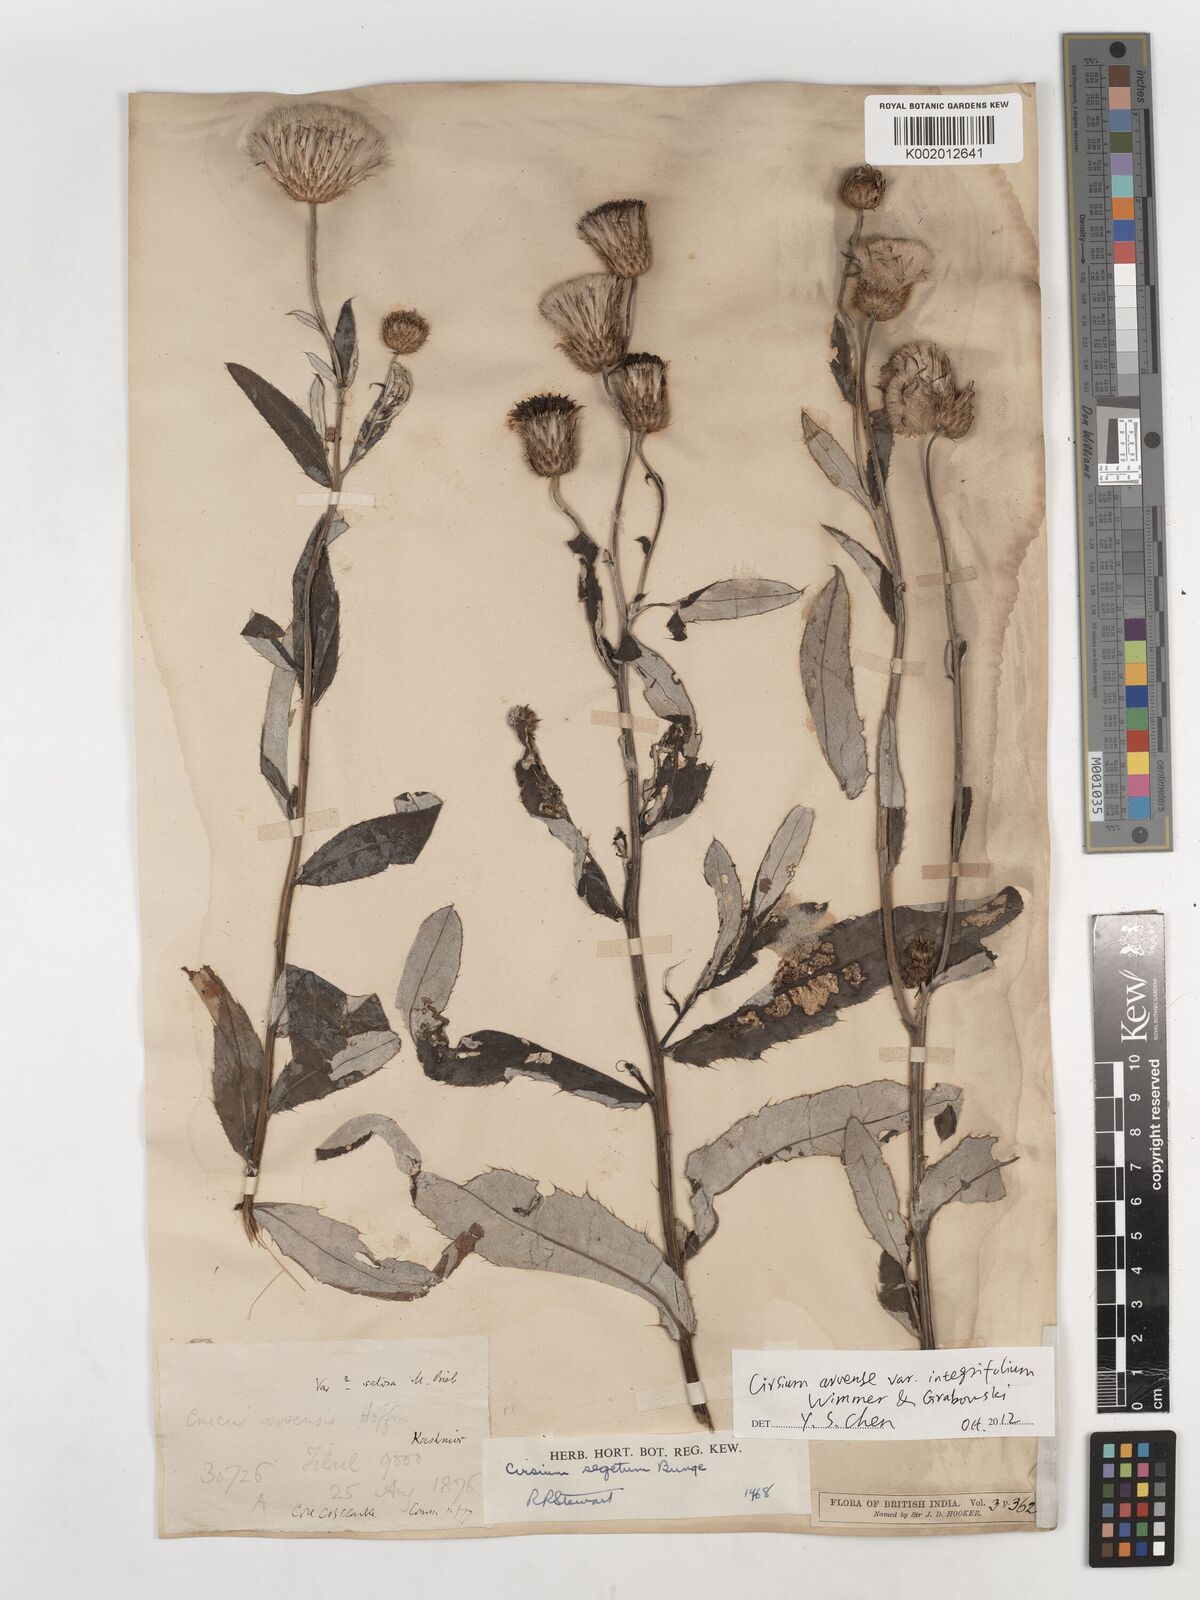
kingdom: Plantae
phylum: Tracheophyta
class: Magnoliopsida
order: Asterales
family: Asteraceae
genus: Cirsium
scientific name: Cirsium chinense
